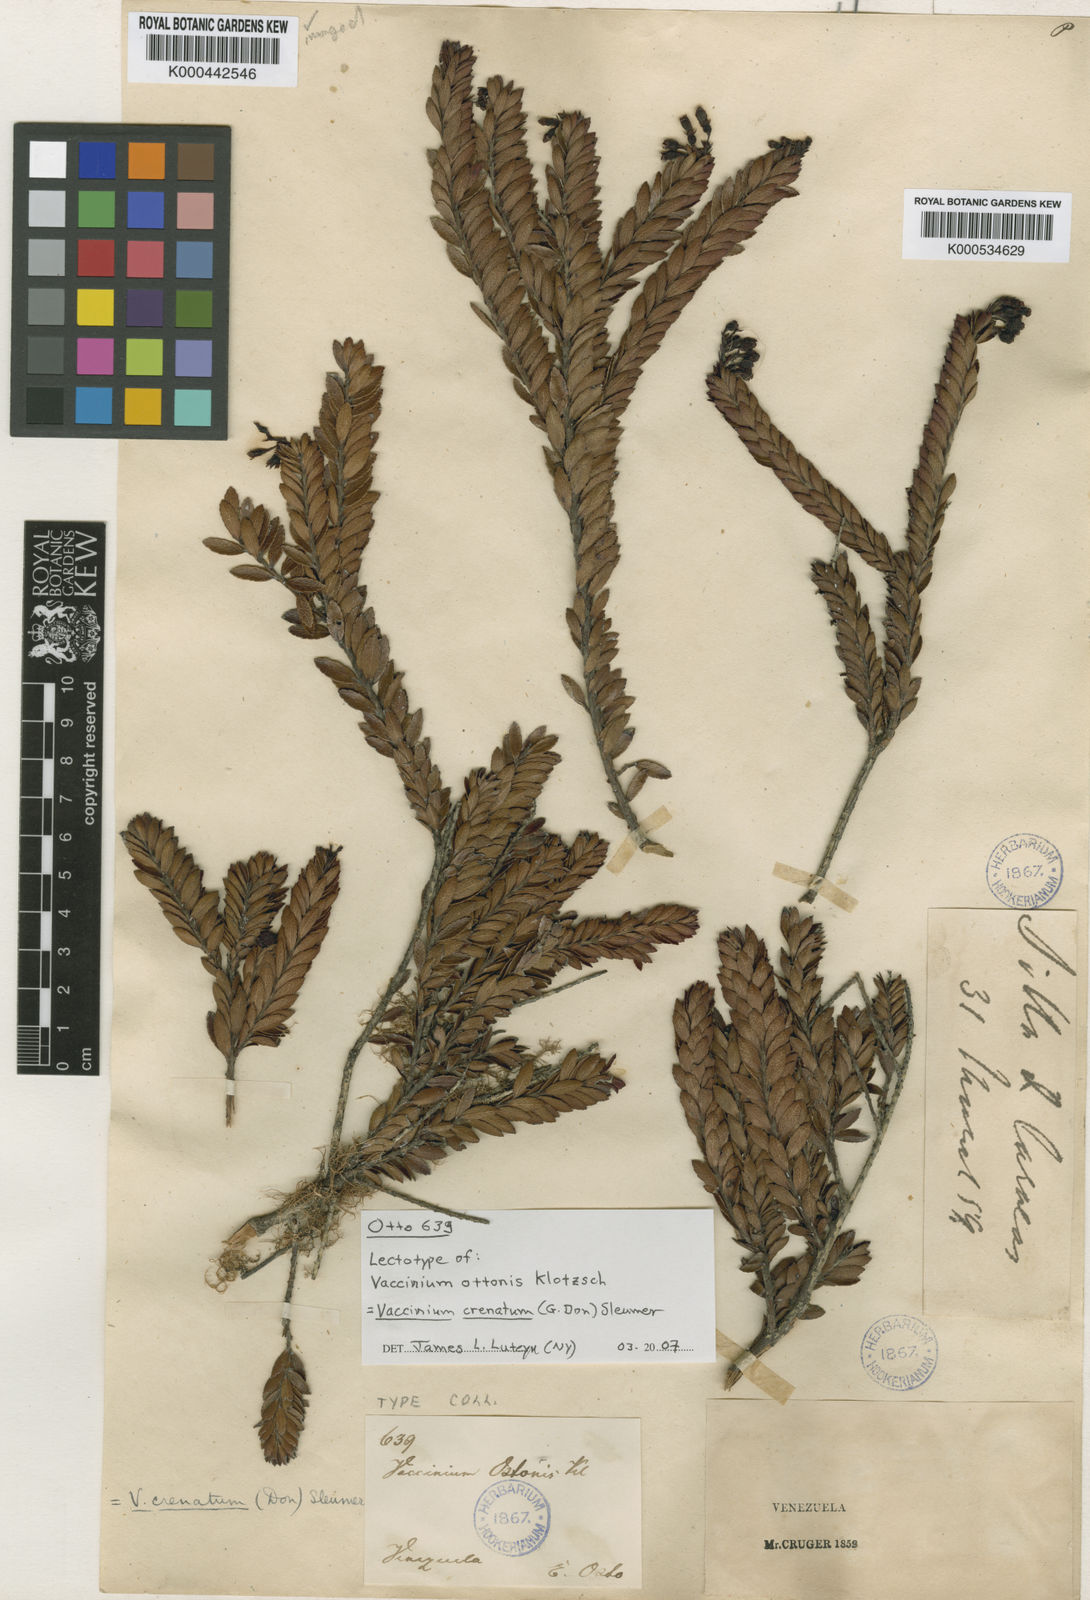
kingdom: Plantae
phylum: Tracheophyta
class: Magnoliopsida
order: Ericales
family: Ericaceae
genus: Vaccinium
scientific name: Vaccinium crenatum
